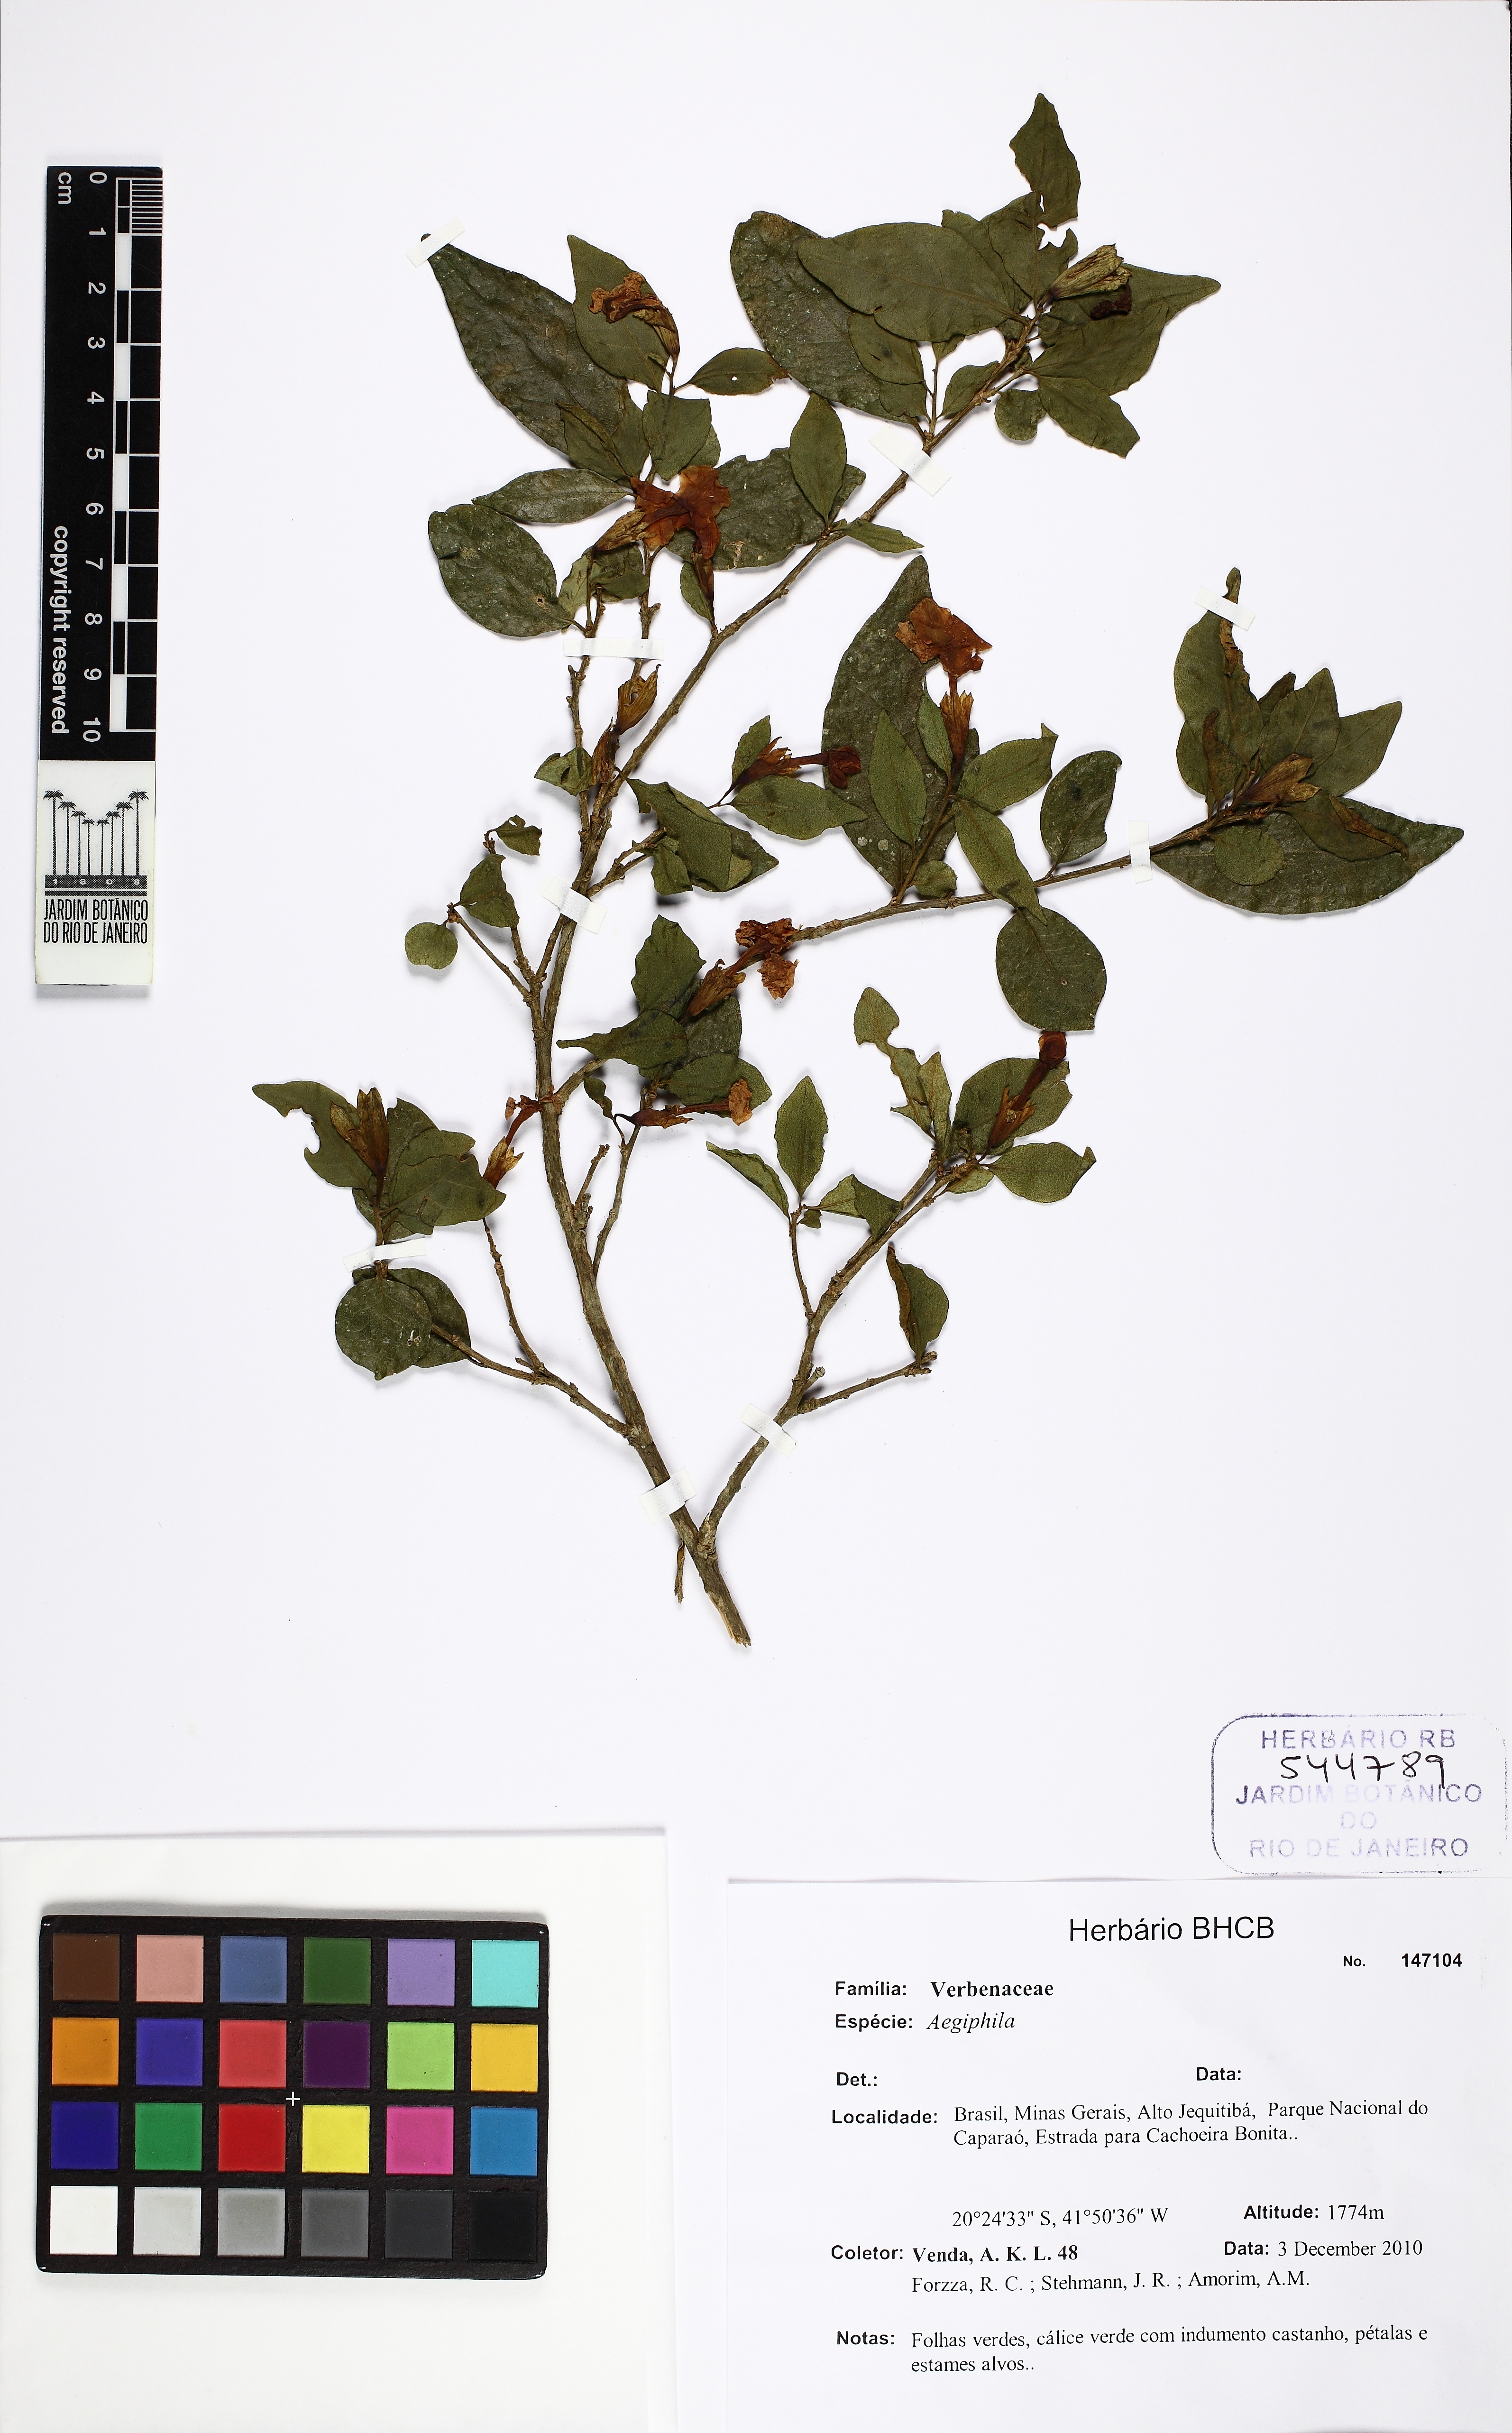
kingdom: Plantae
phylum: Tracheophyta
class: Magnoliopsida
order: Lamiales
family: Lamiaceae
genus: Aegiphila
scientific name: Aegiphila
